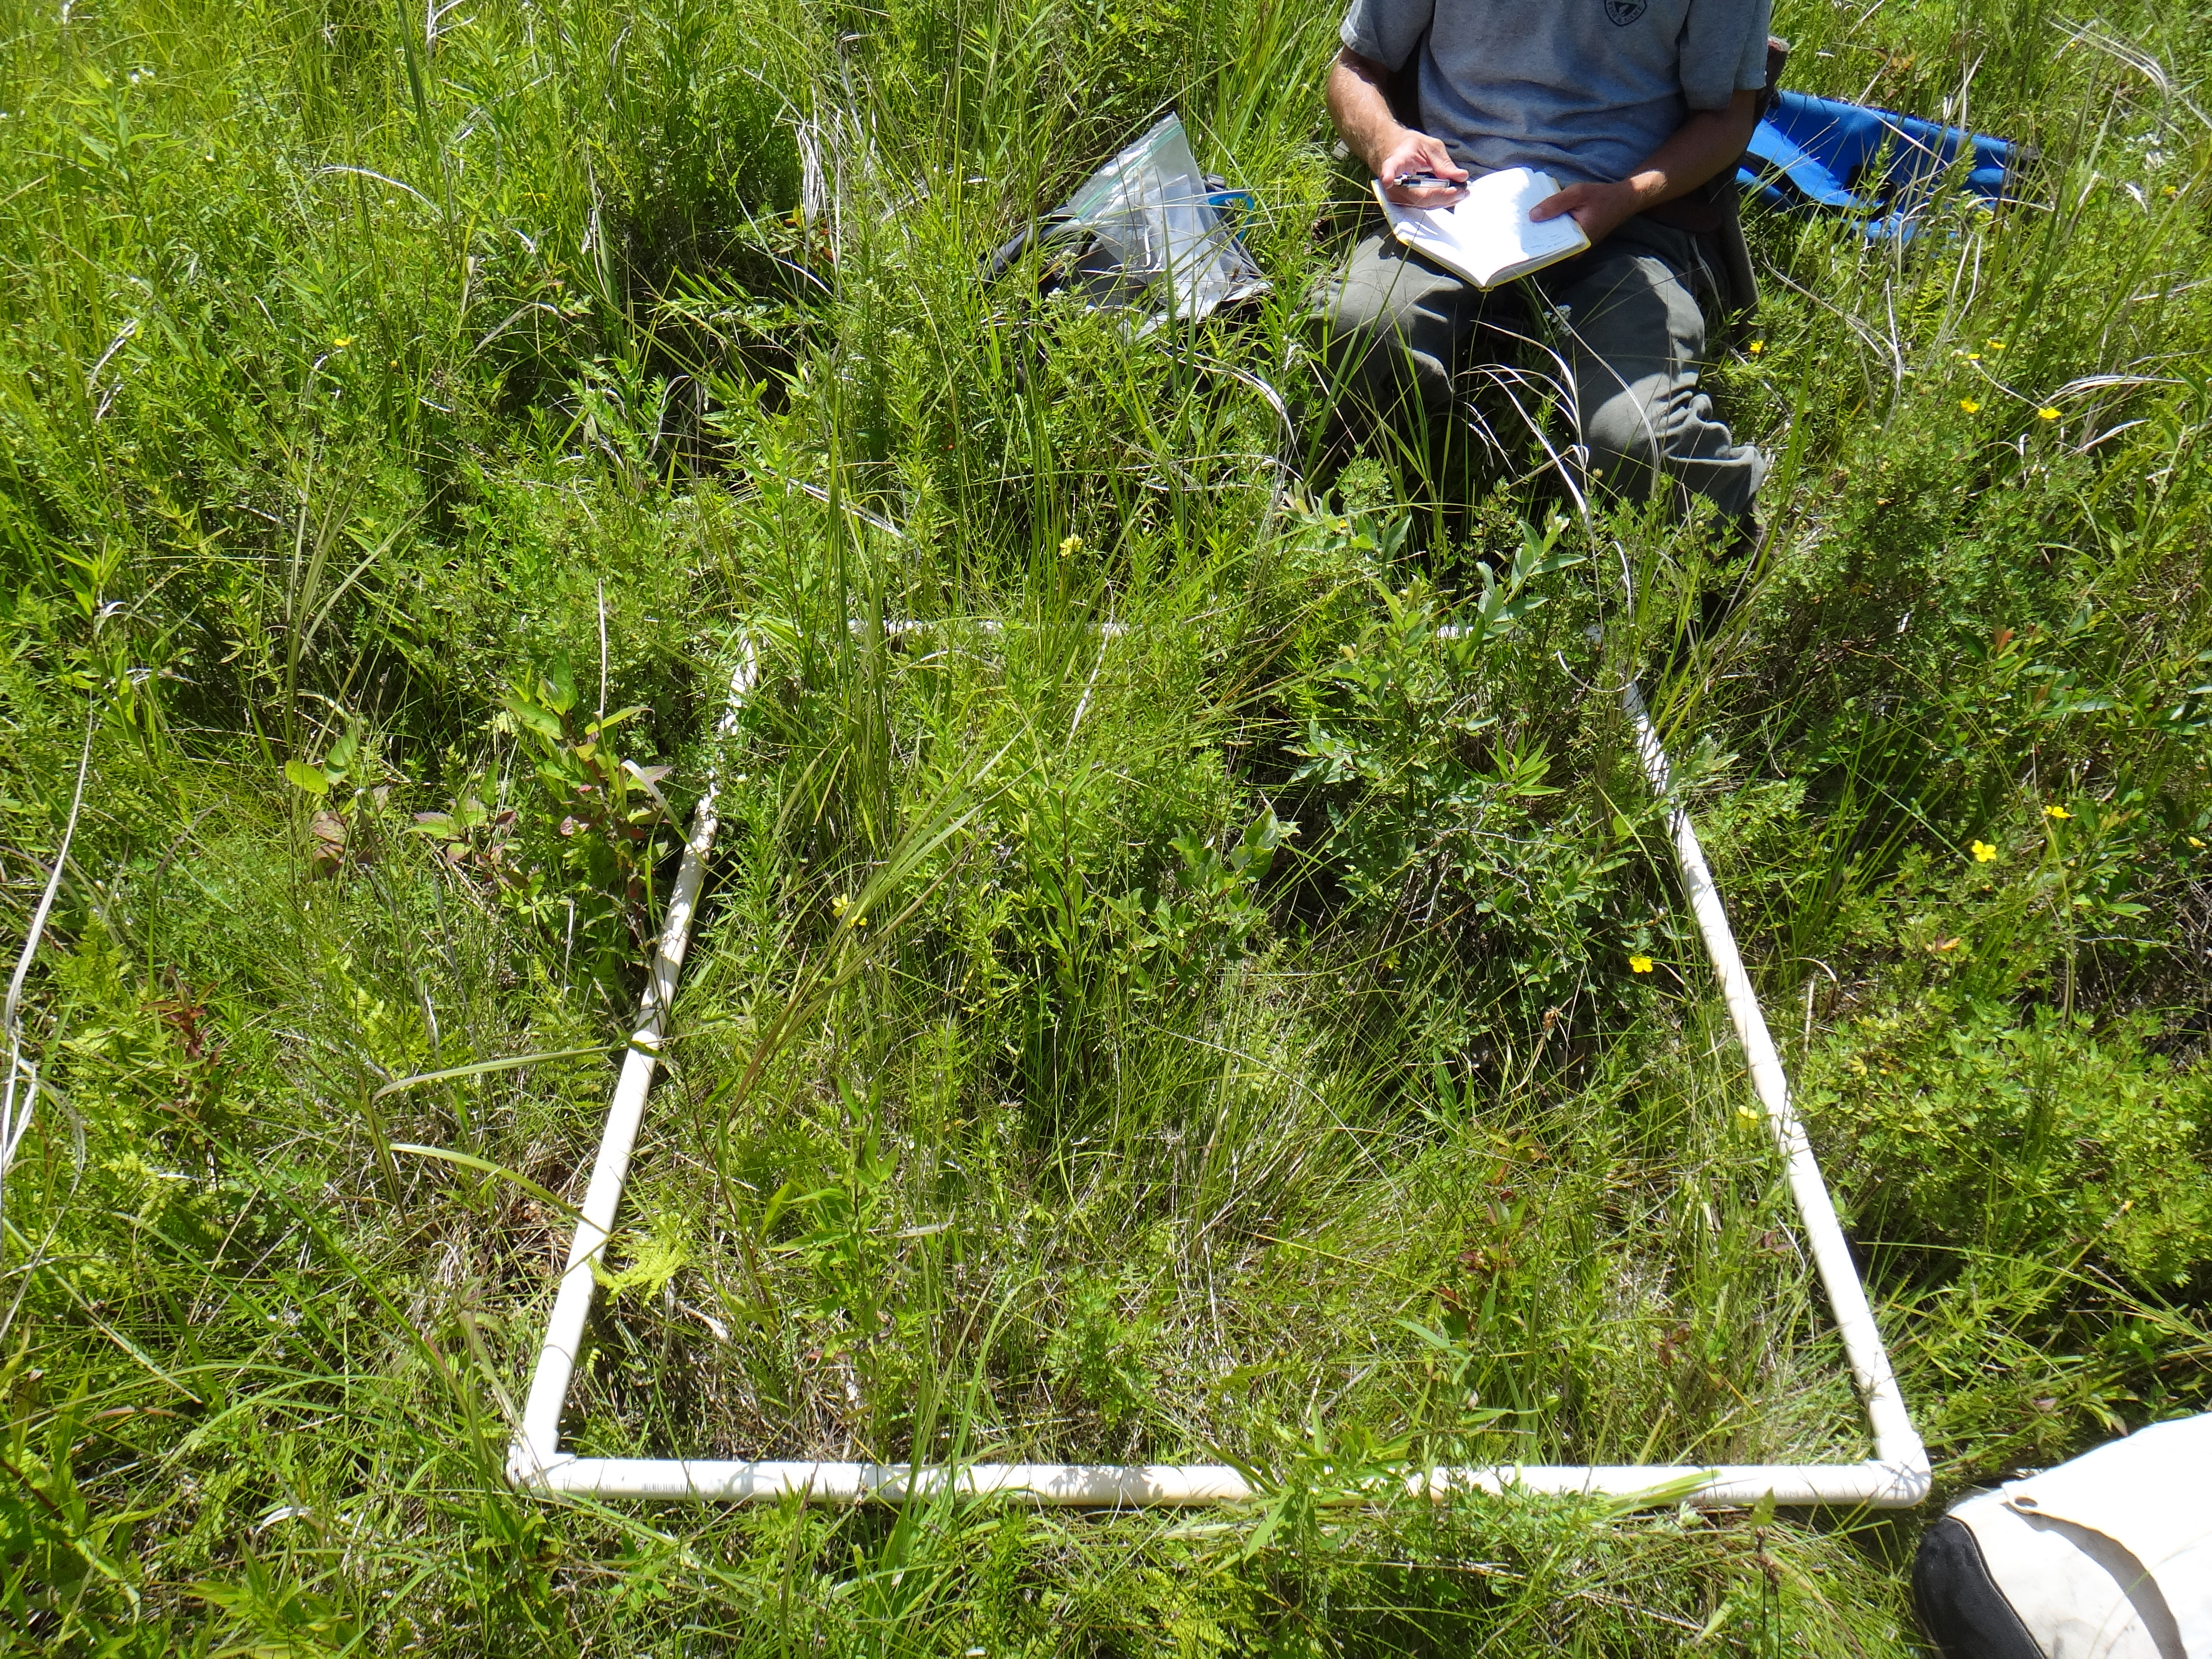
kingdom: Plantae
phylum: Tracheophyta
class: Magnoliopsida
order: Asterales
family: Asteraceae
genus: Symphyotrichum
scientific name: Symphyotrichum novae-angliae
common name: Michaelmas daisy
